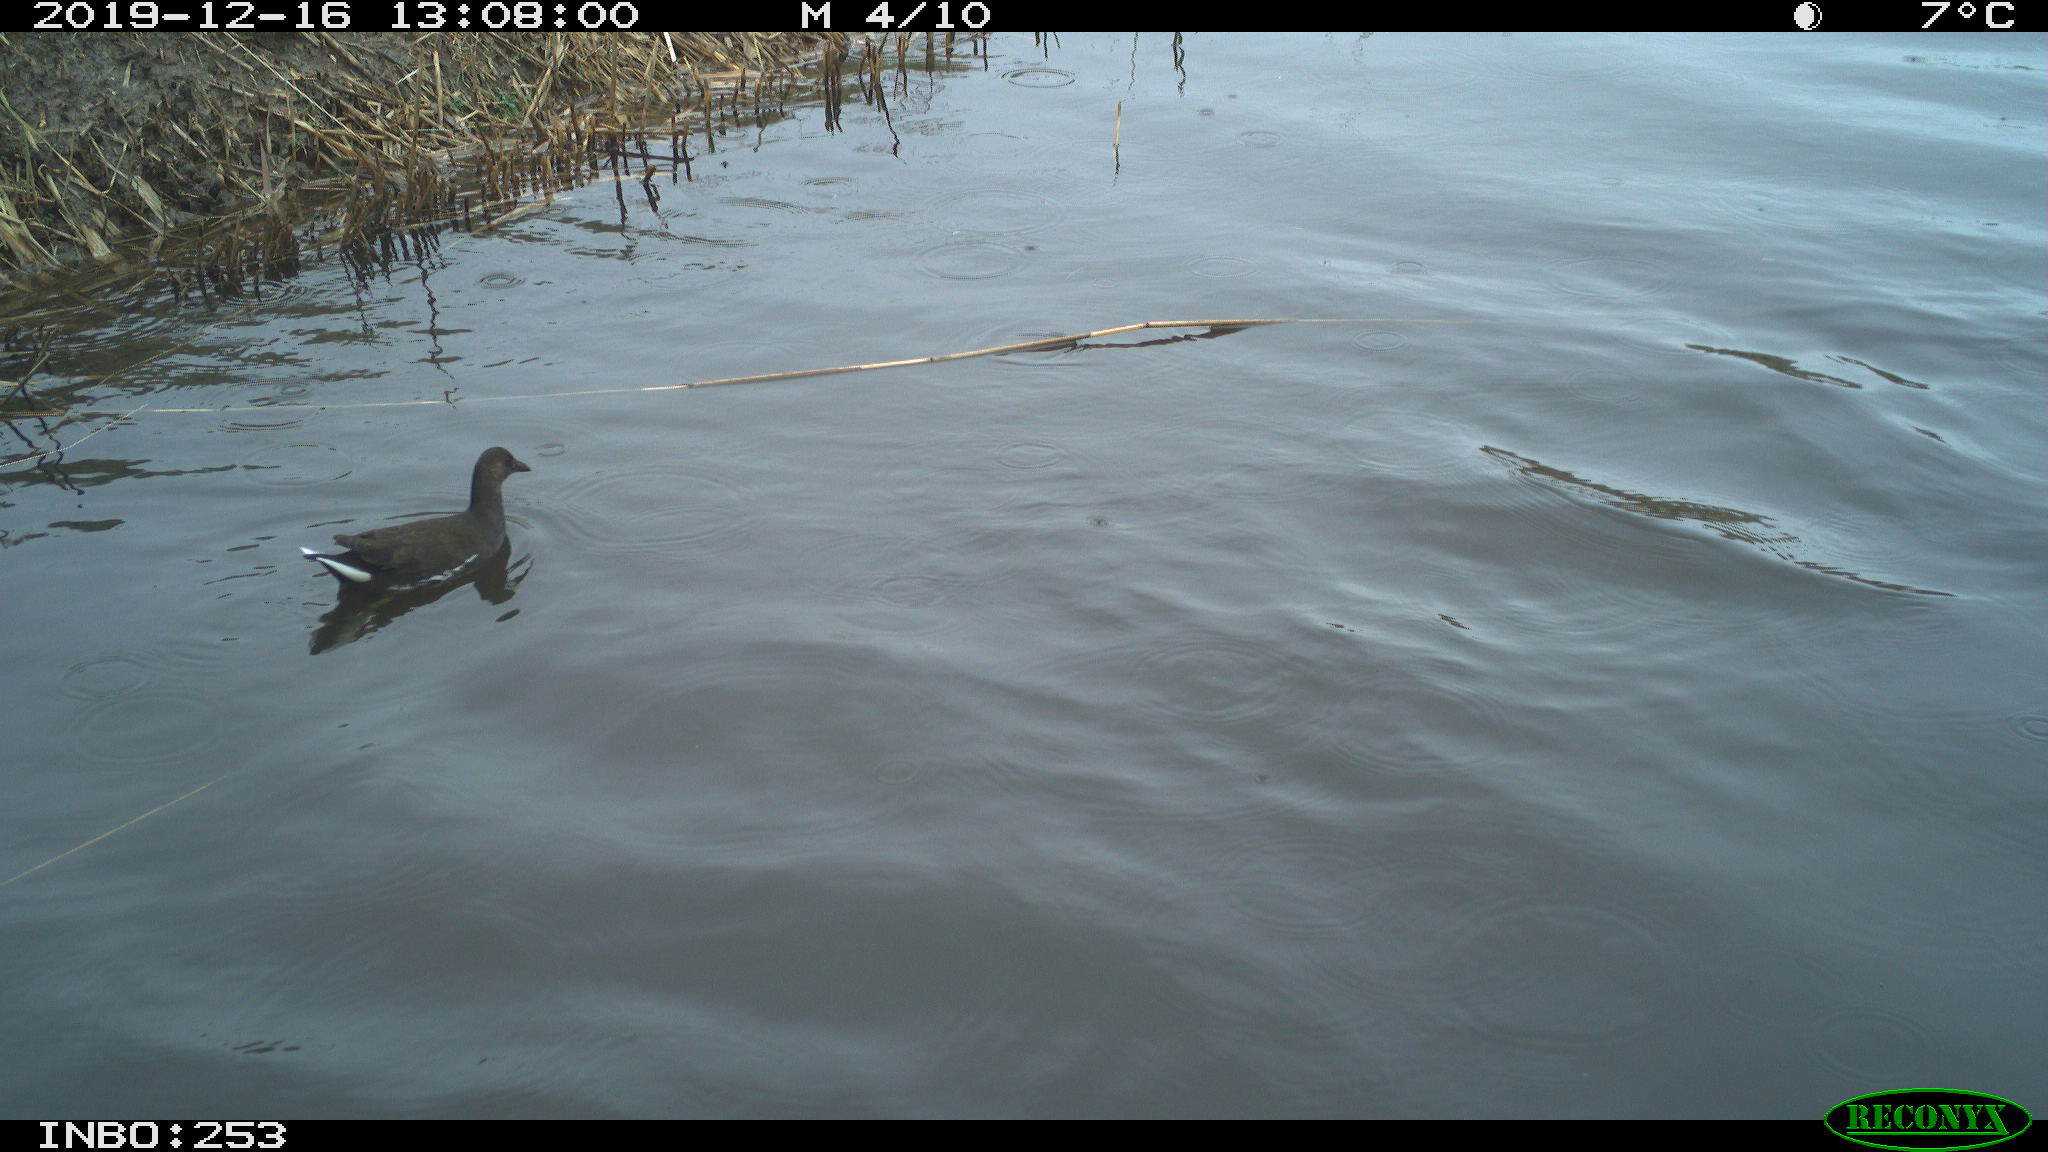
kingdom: Animalia
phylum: Chordata
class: Aves
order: Gruiformes
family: Rallidae
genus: Gallinula
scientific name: Gallinula chloropus
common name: Common moorhen
